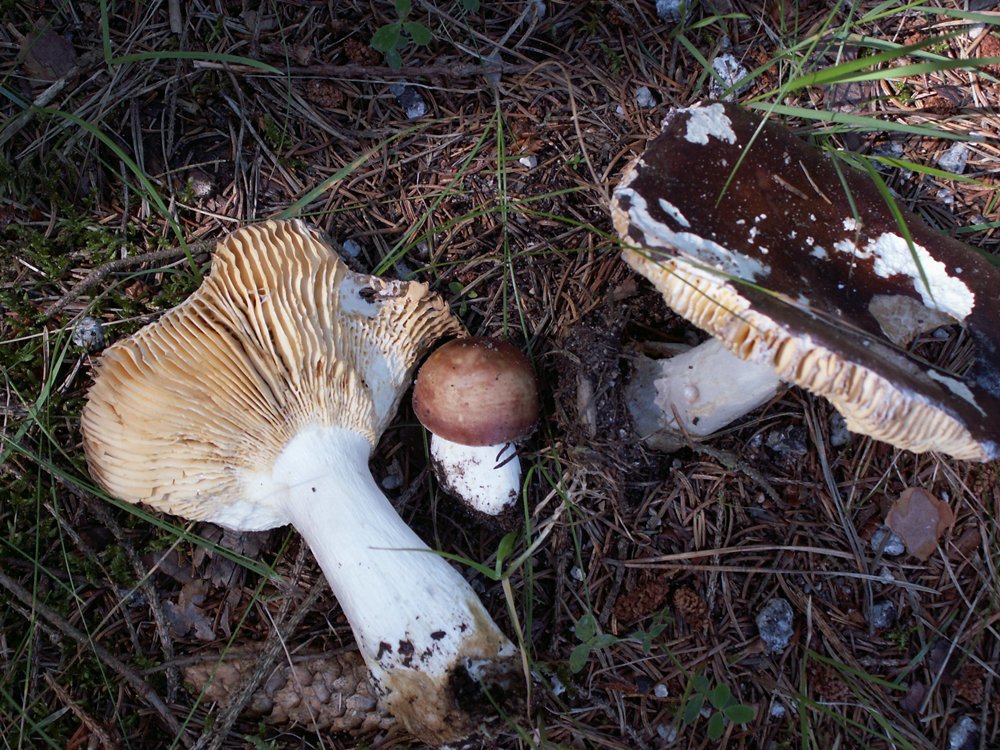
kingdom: Fungi
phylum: Basidiomycota
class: Agaricomycetes
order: Russulales
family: Russulaceae
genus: Russula
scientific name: Russula integra
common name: mandel-skørhat
